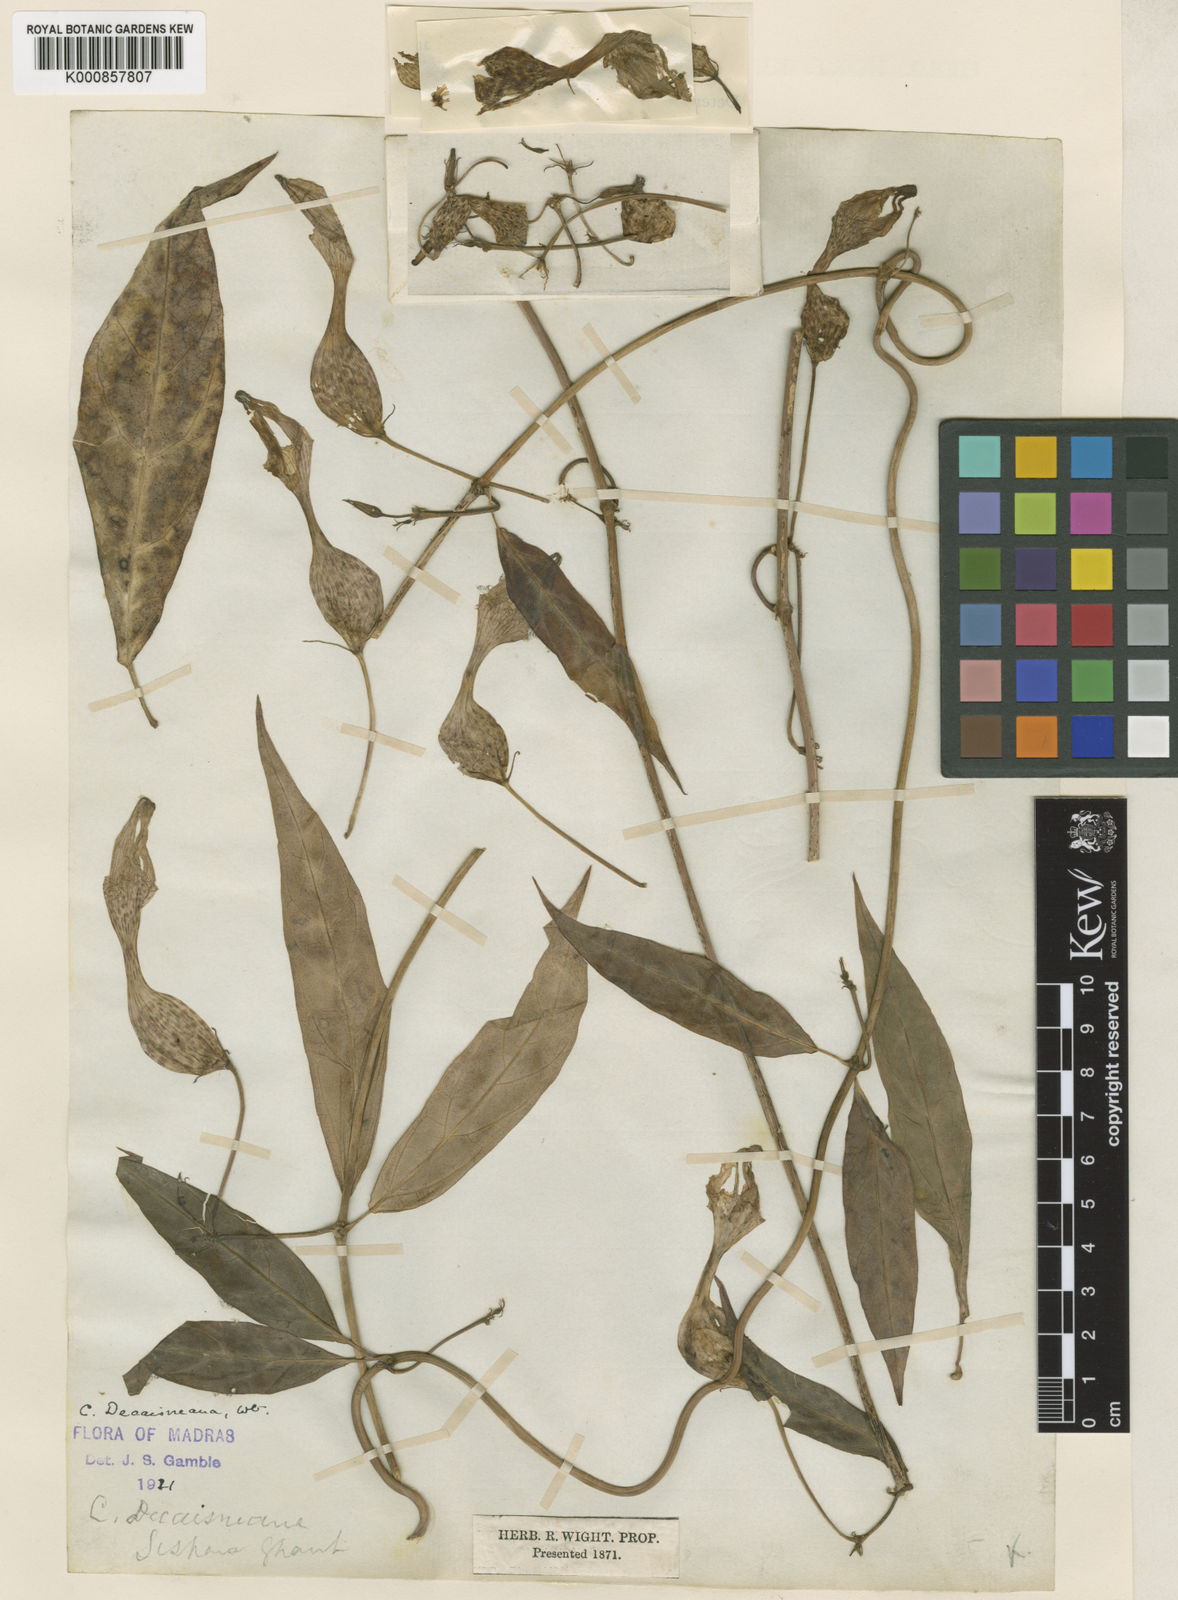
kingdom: Plantae
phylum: Tracheophyta
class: Magnoliopsida
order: Gentianales
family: Apocynaceae
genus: Ceropegia
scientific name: Ceropegia decaisneana
